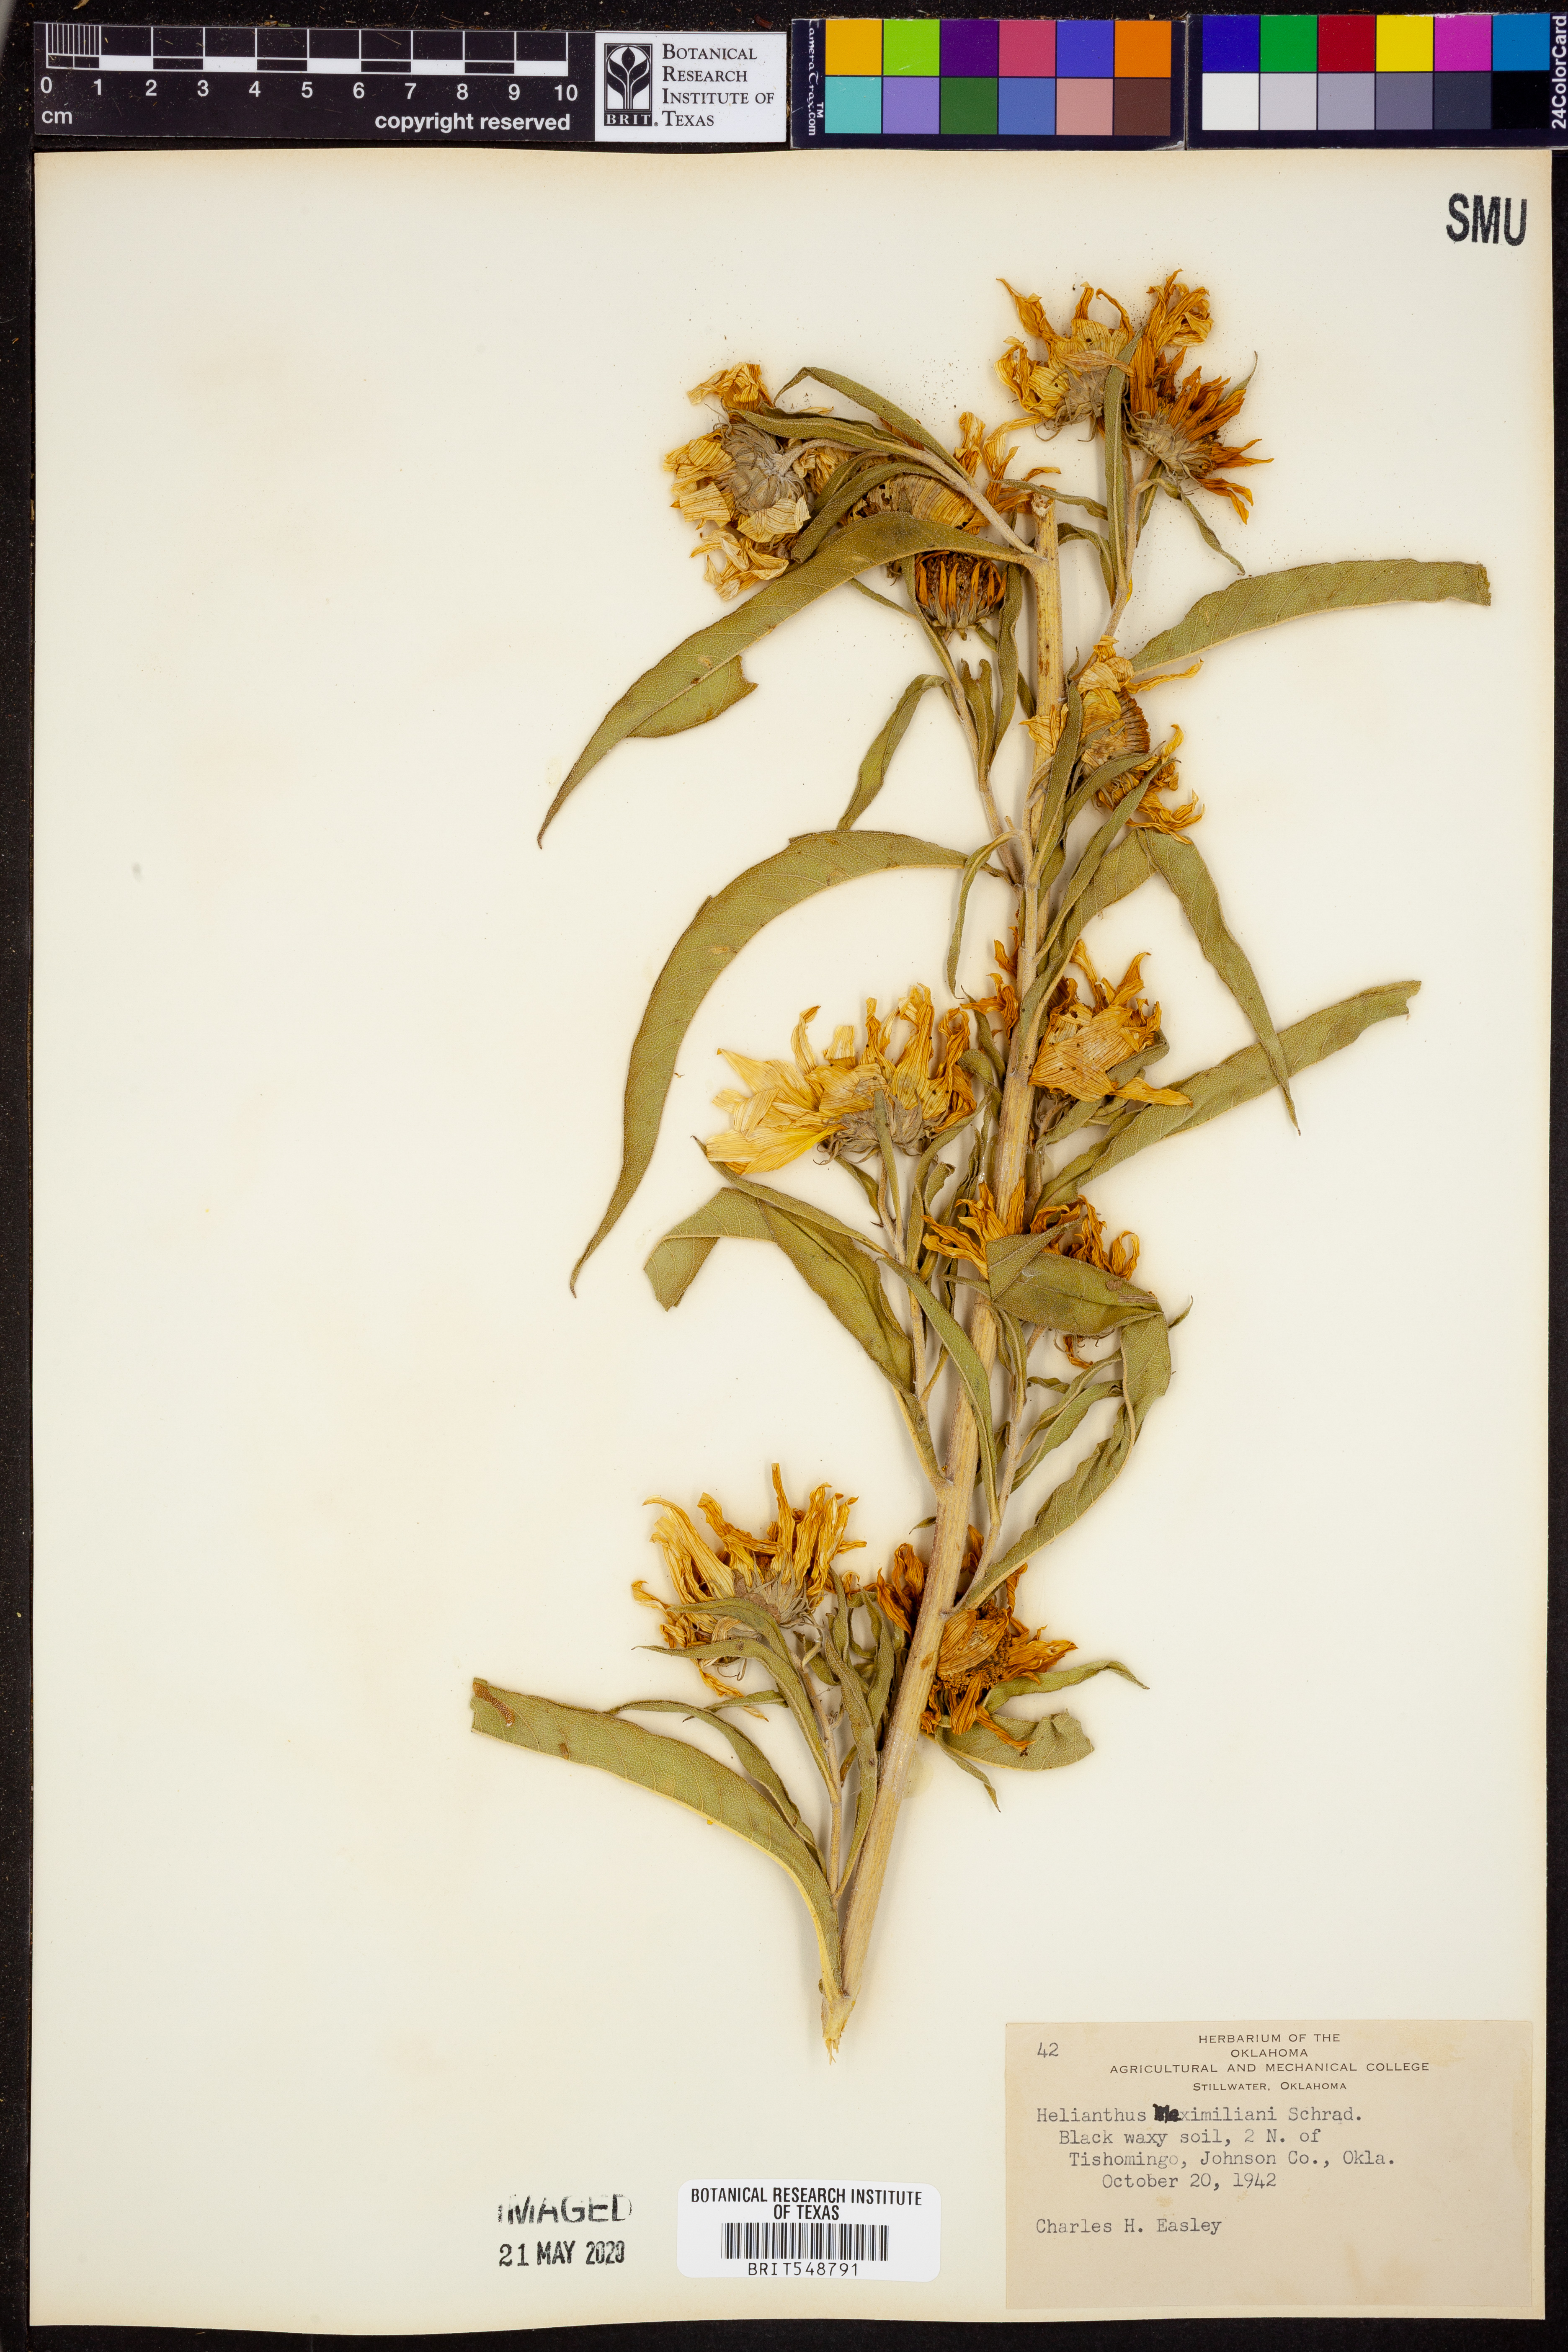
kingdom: Plantae
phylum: Tracheophyta
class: Magnoliopsida
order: Asterales
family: Asteraceae
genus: Helianthus
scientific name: Helianthus maximiliani
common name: Maximilian's sunflower
